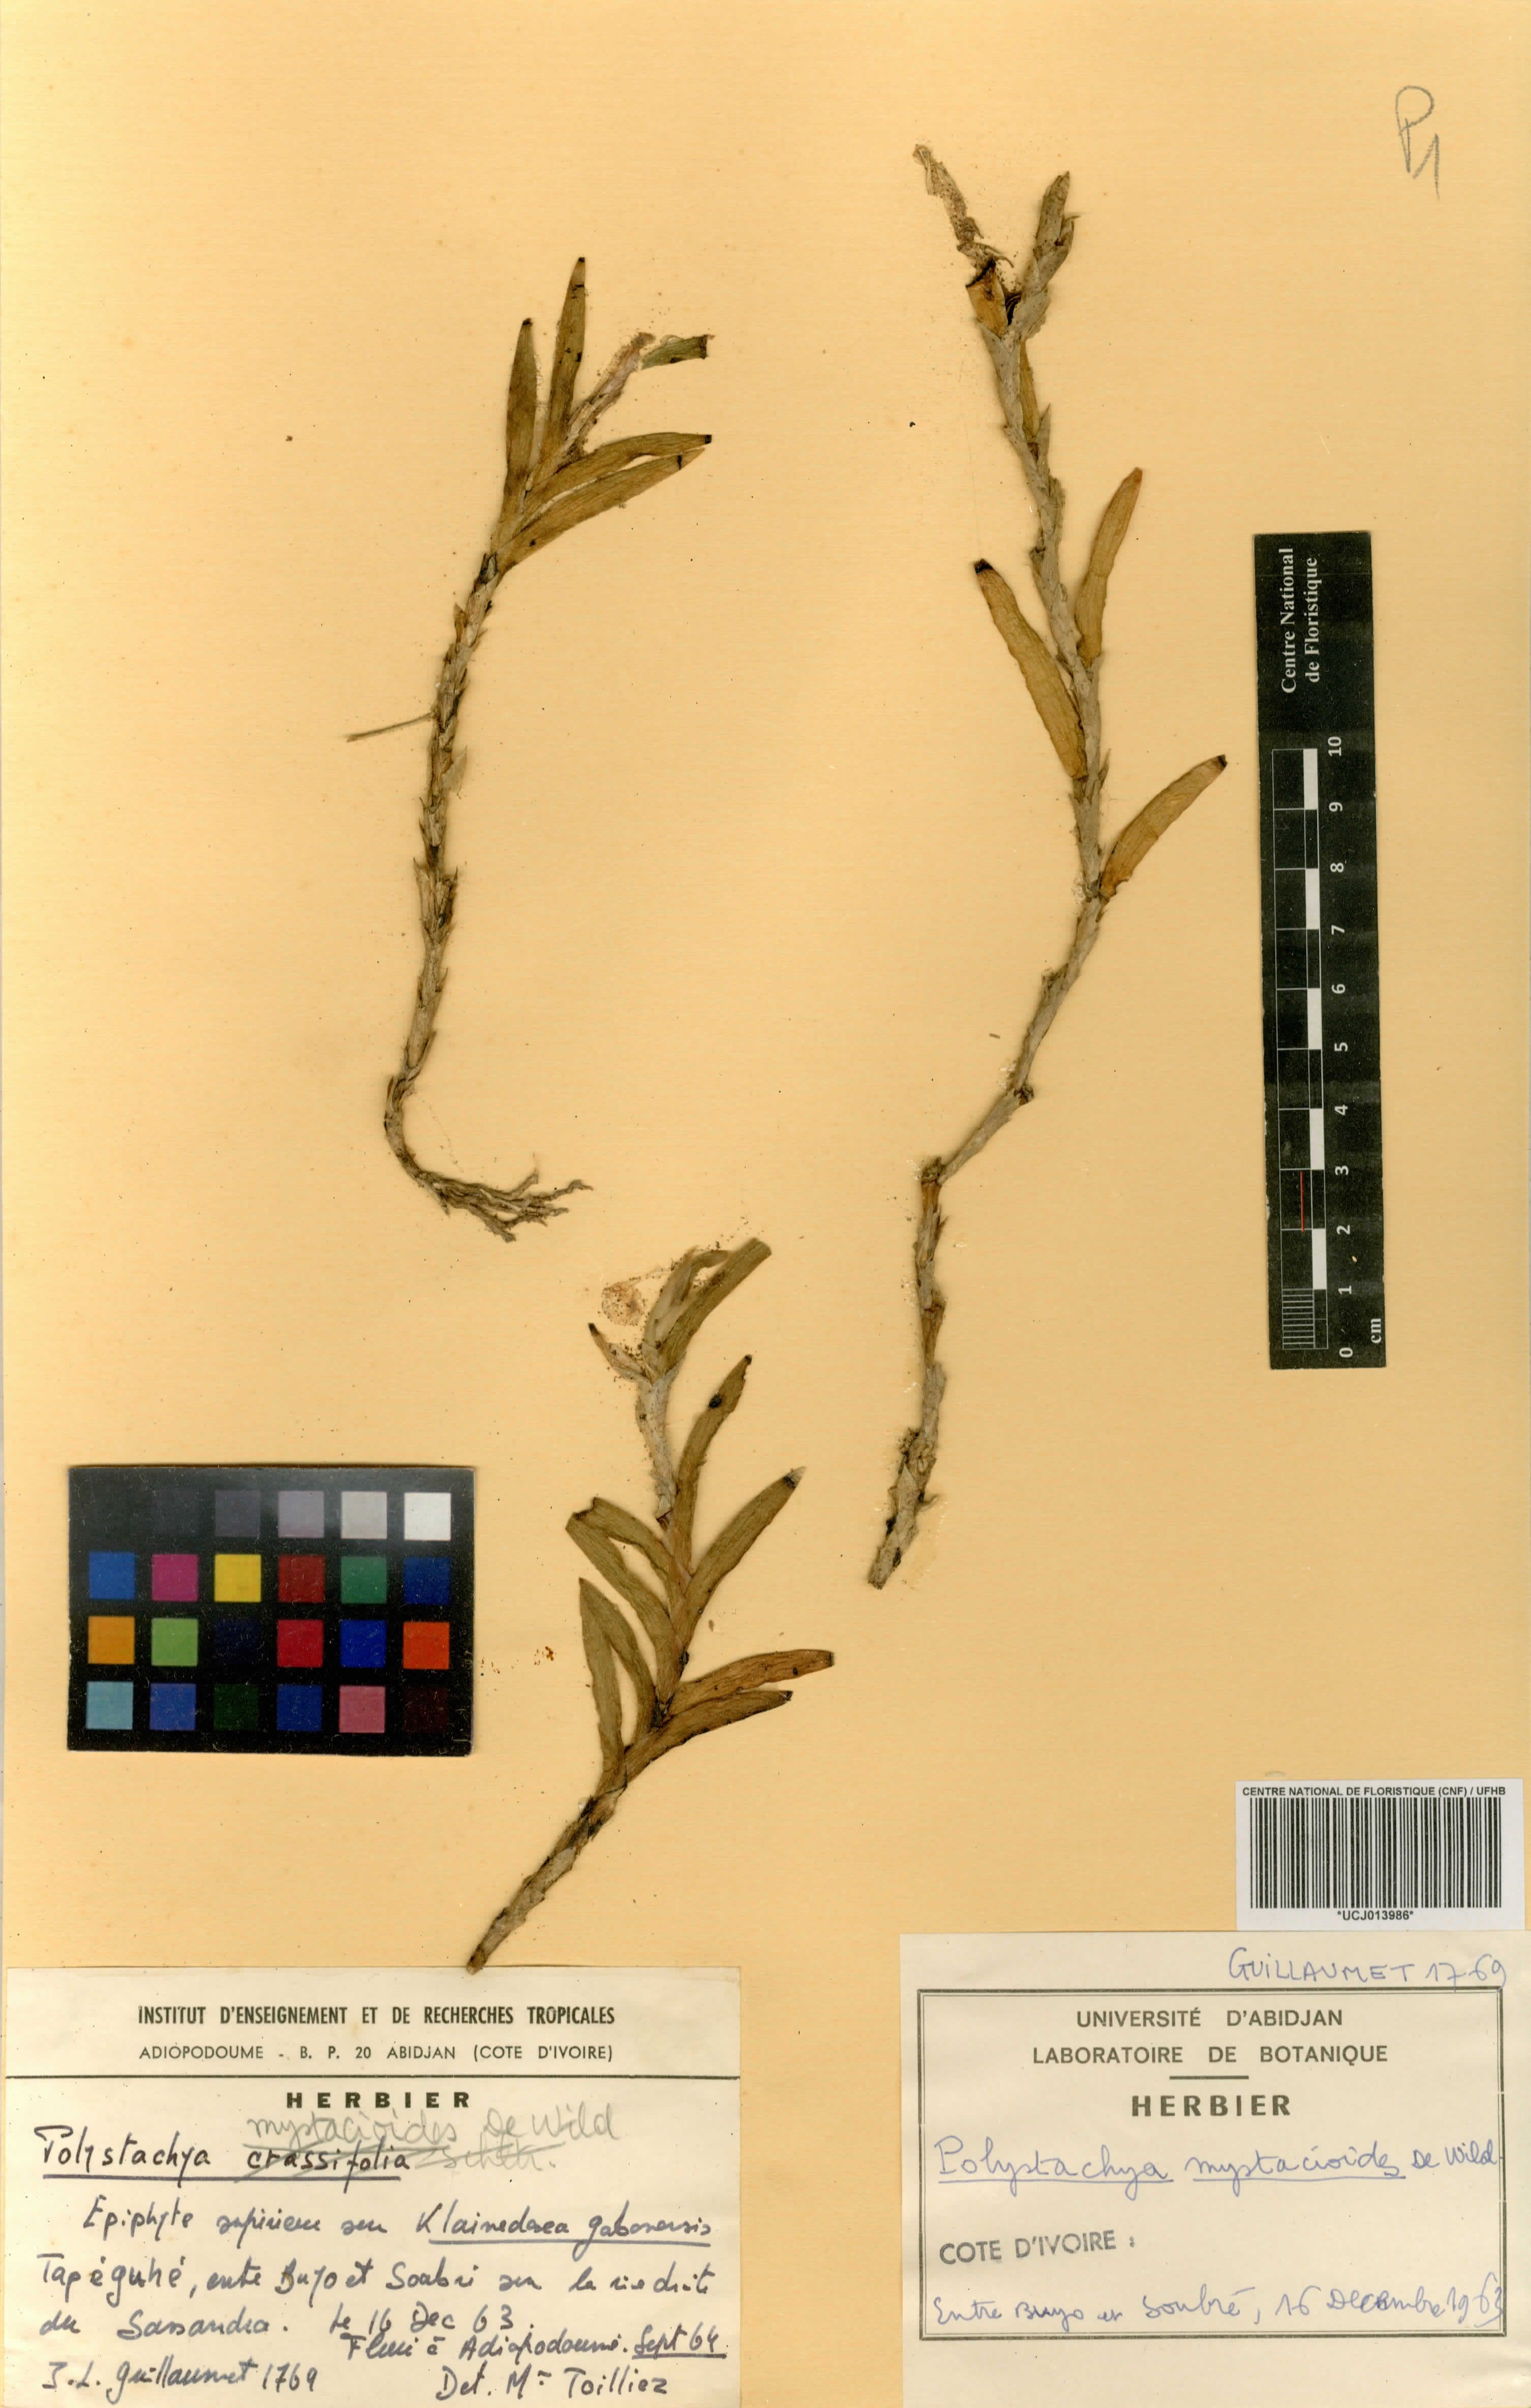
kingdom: Plantae
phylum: Tracheophyta
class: Liliopsida
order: Asparagales
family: Orchidaceae
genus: Polystachya
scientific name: Polystachya mystacioides
